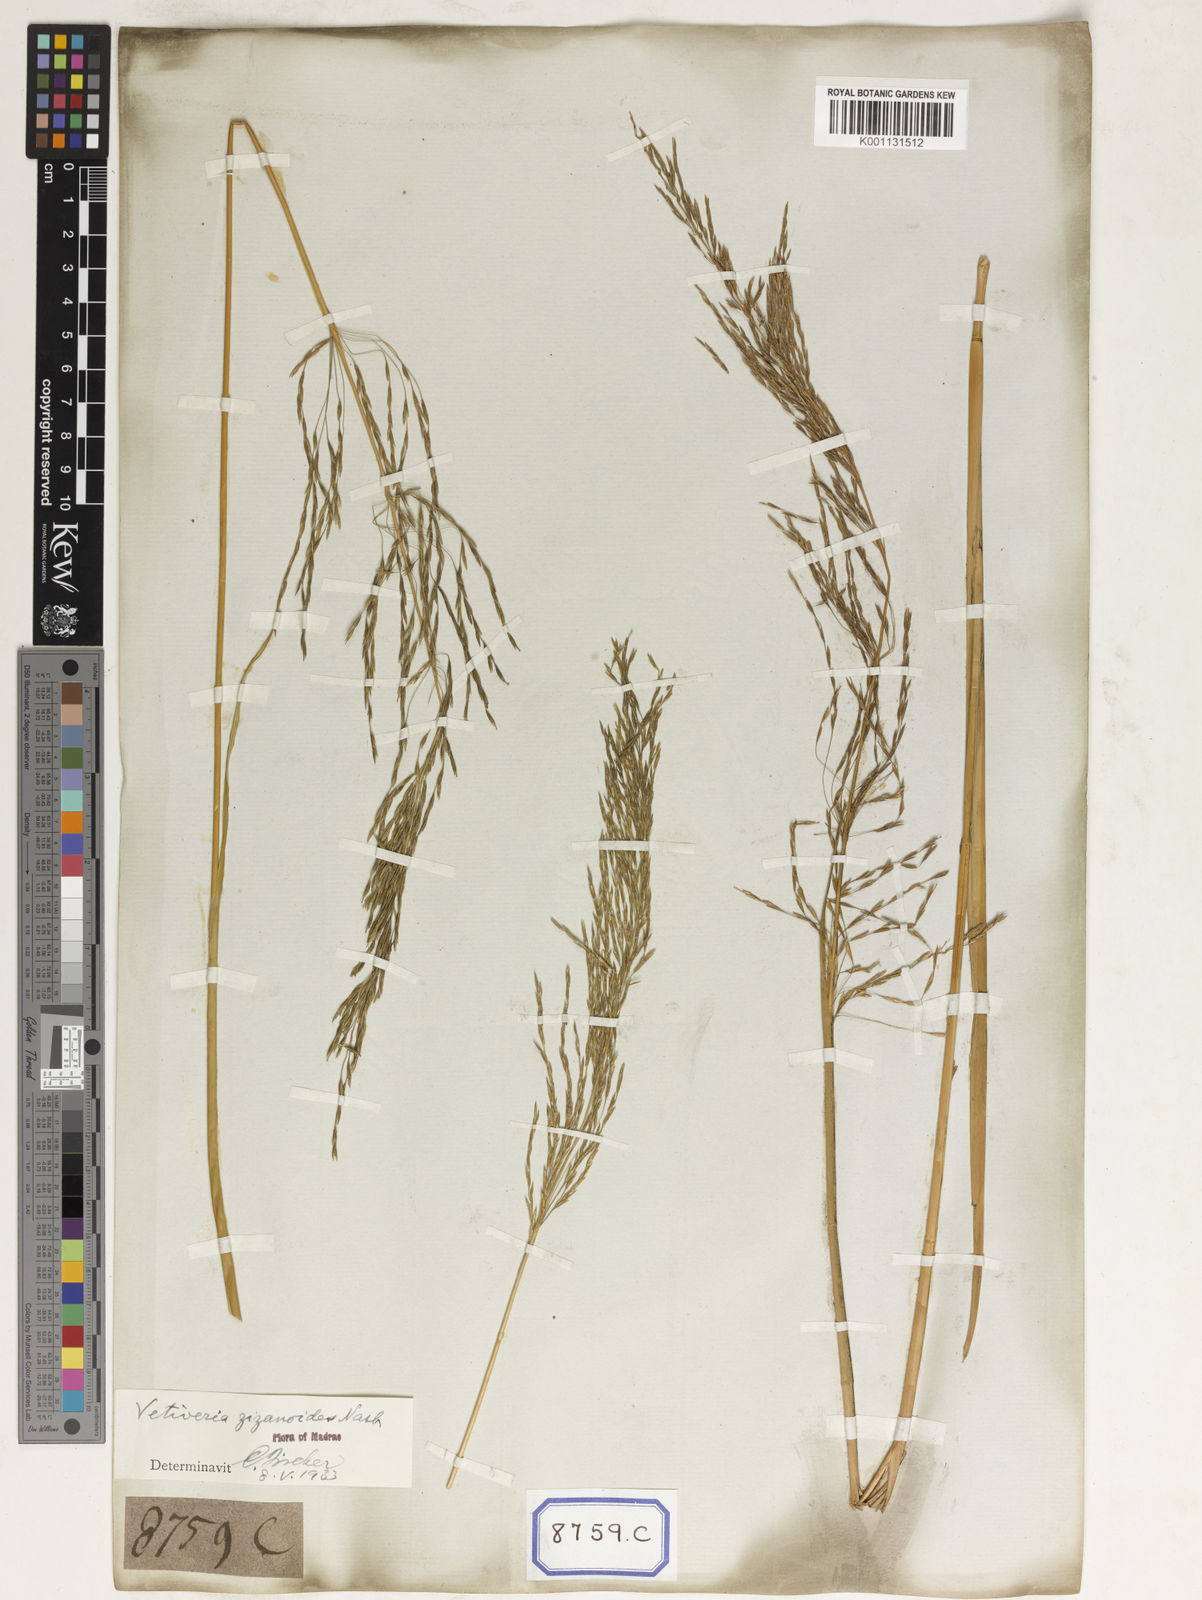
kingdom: Plantae
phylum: Tracheophyta
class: Liliopsida
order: Poales
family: Poaceae
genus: Chrysopogon
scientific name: Chrysopogon zizanioides
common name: False beardgrass
